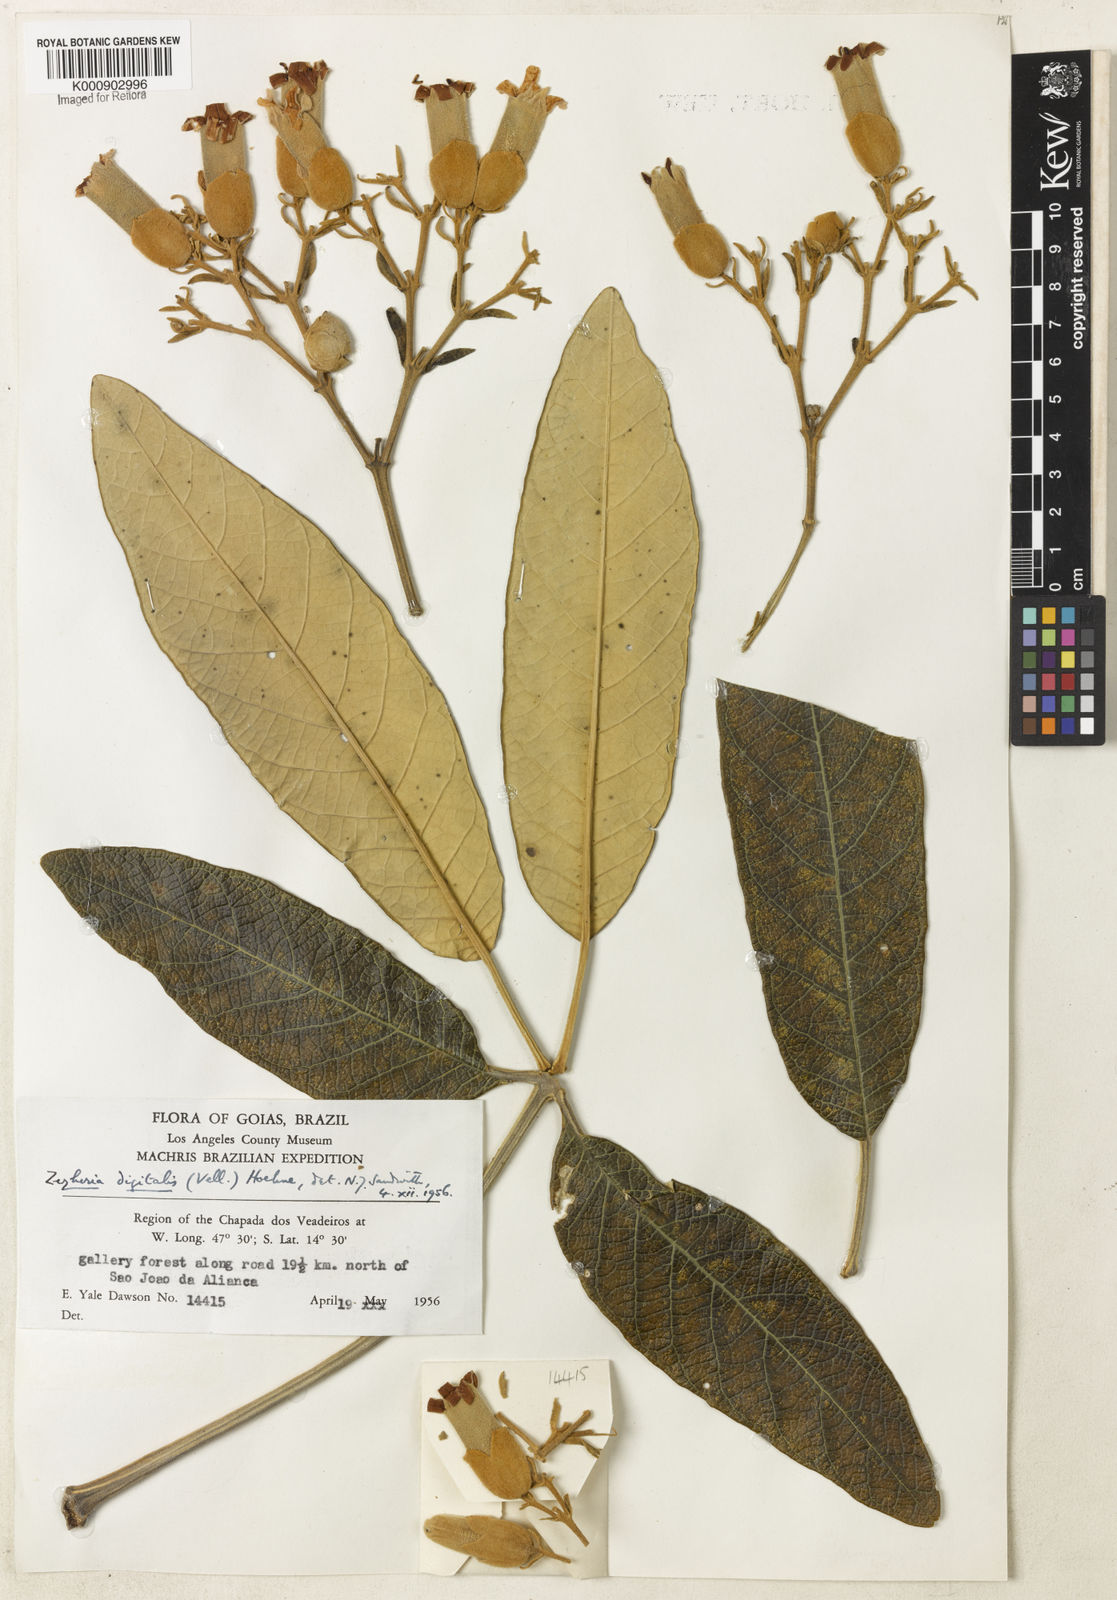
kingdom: Plantae
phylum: Tracheophyta
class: Magnoliopsida
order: Lamiales
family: Bignoniaceae
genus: Zeyheria
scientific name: Zeyheria
